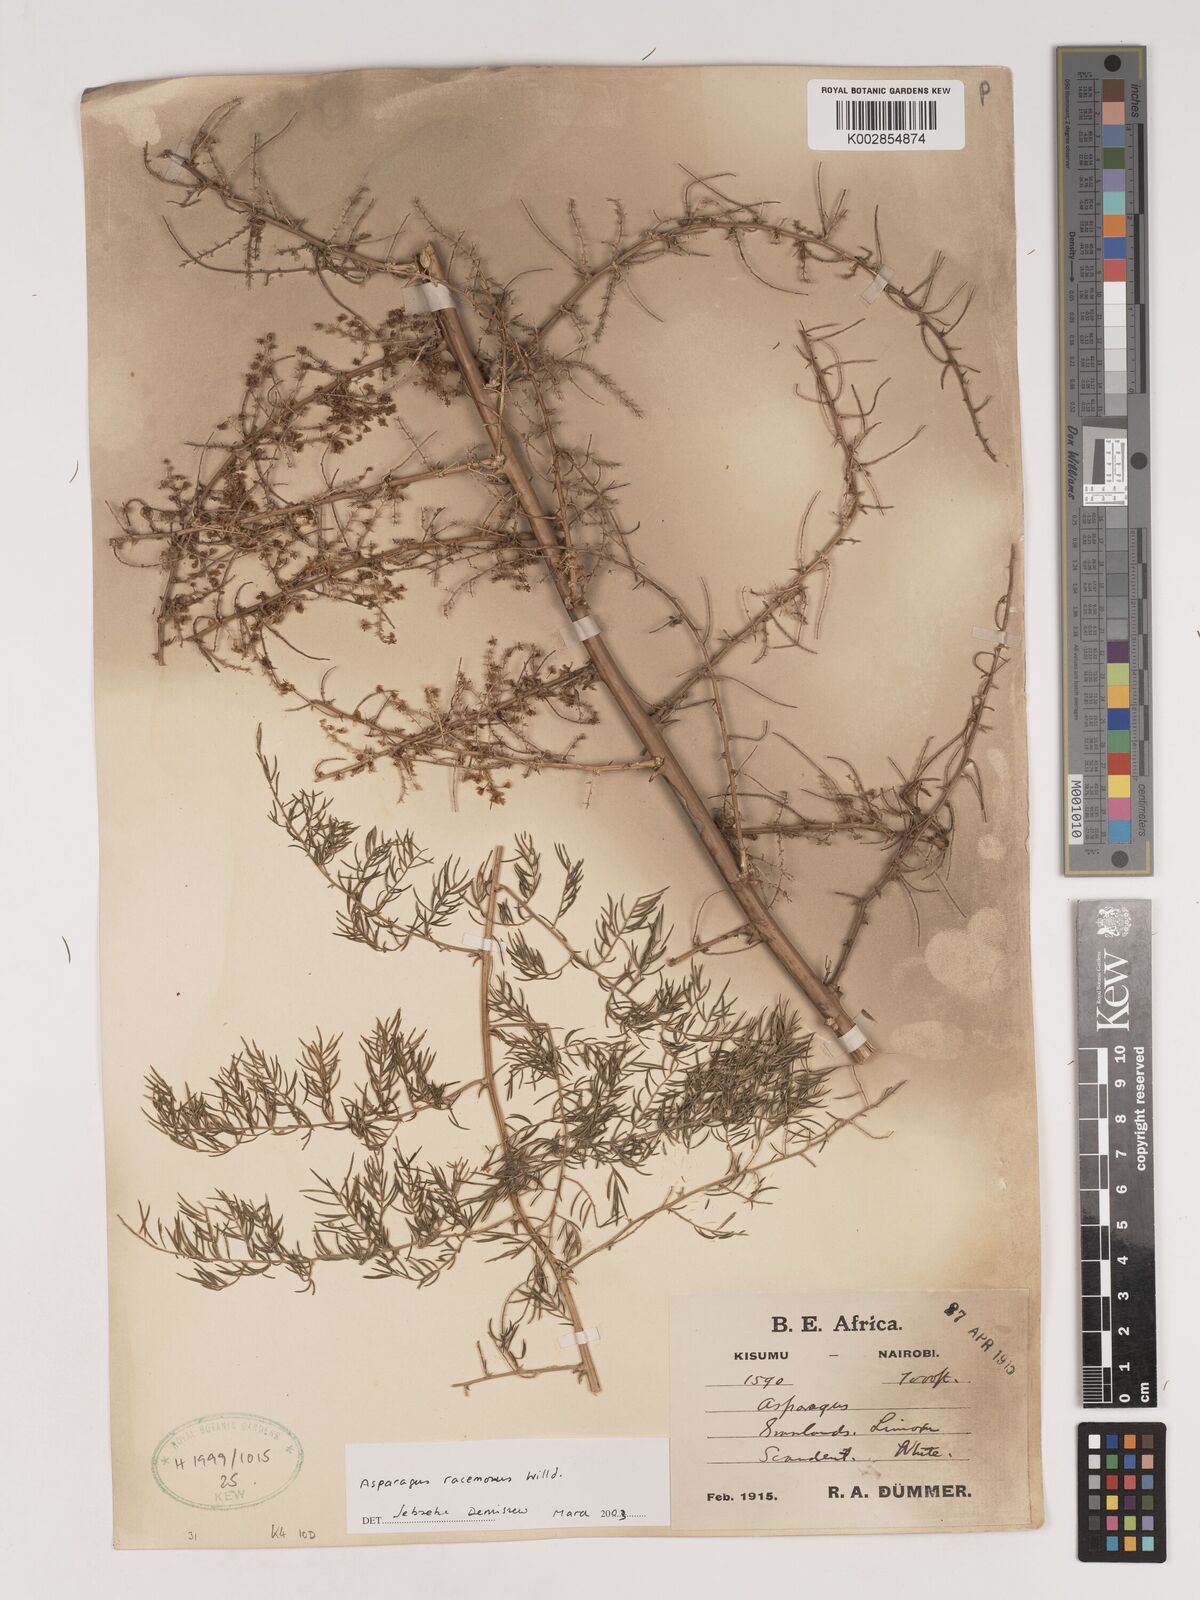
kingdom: Plantae
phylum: Tracheophyta
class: Liliopsida
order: Asparagales
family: Asparagaceae
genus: Asparagus
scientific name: Asparagus racemosus
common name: Asparagus-fern
